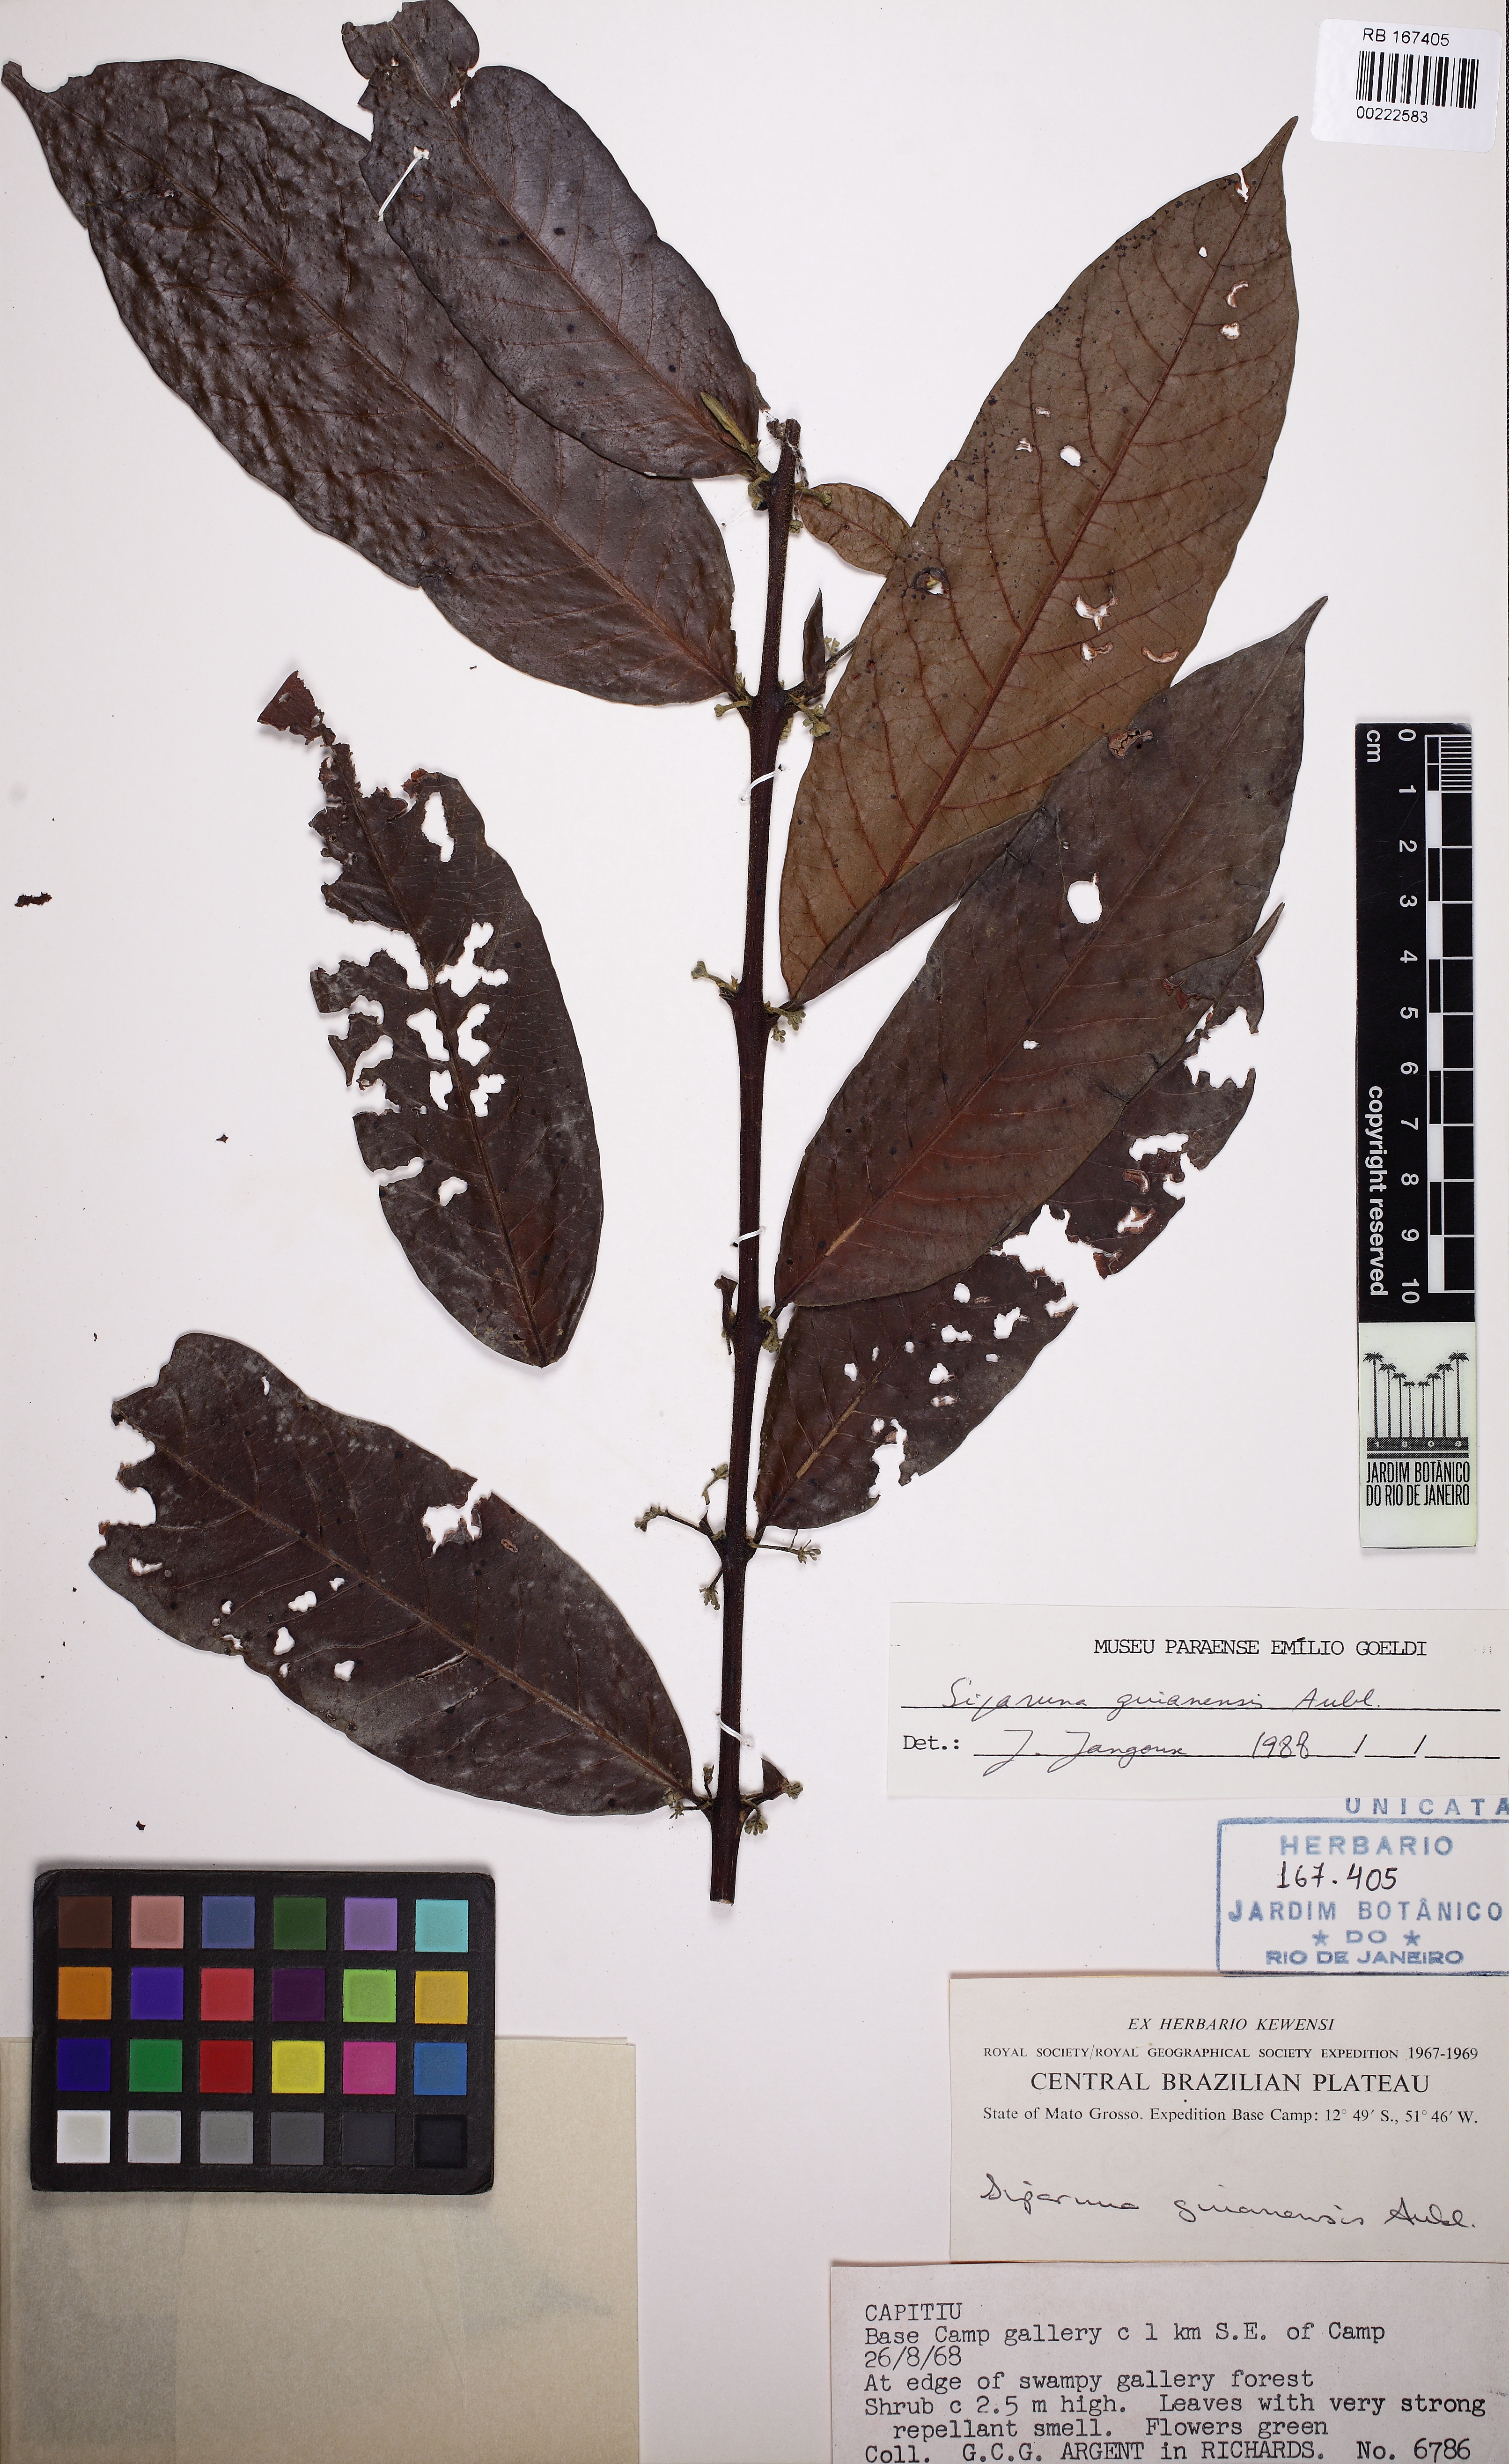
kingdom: Plantae
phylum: Tracheophyta
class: Magnoliopsida
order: Laurales
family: Siparunaceae
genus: Siparuna
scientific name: Siparuna guianensis
